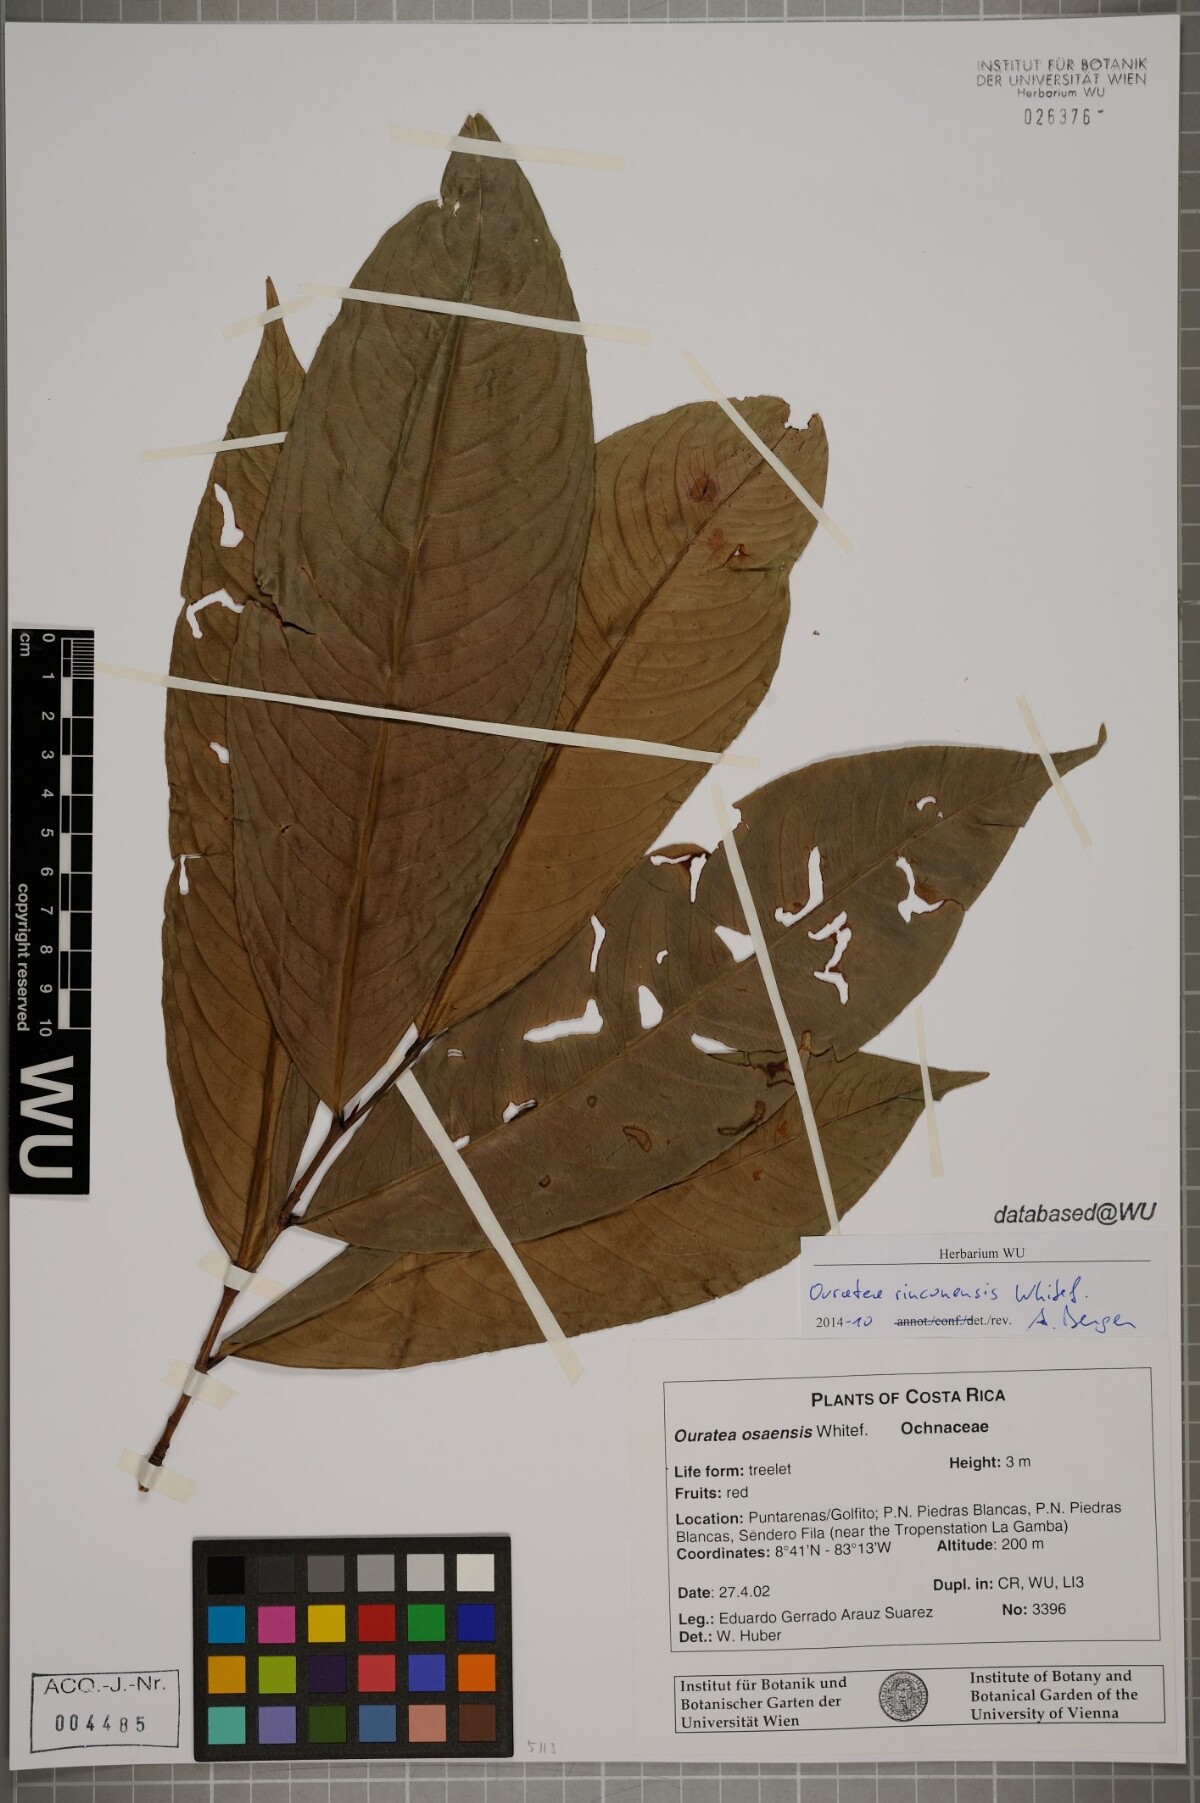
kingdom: Plantae
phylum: Tracheophyta
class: Magnoliopsida
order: Malpighiales
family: Ochnaceae
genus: Ouratea
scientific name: Ouratea rinconensis
